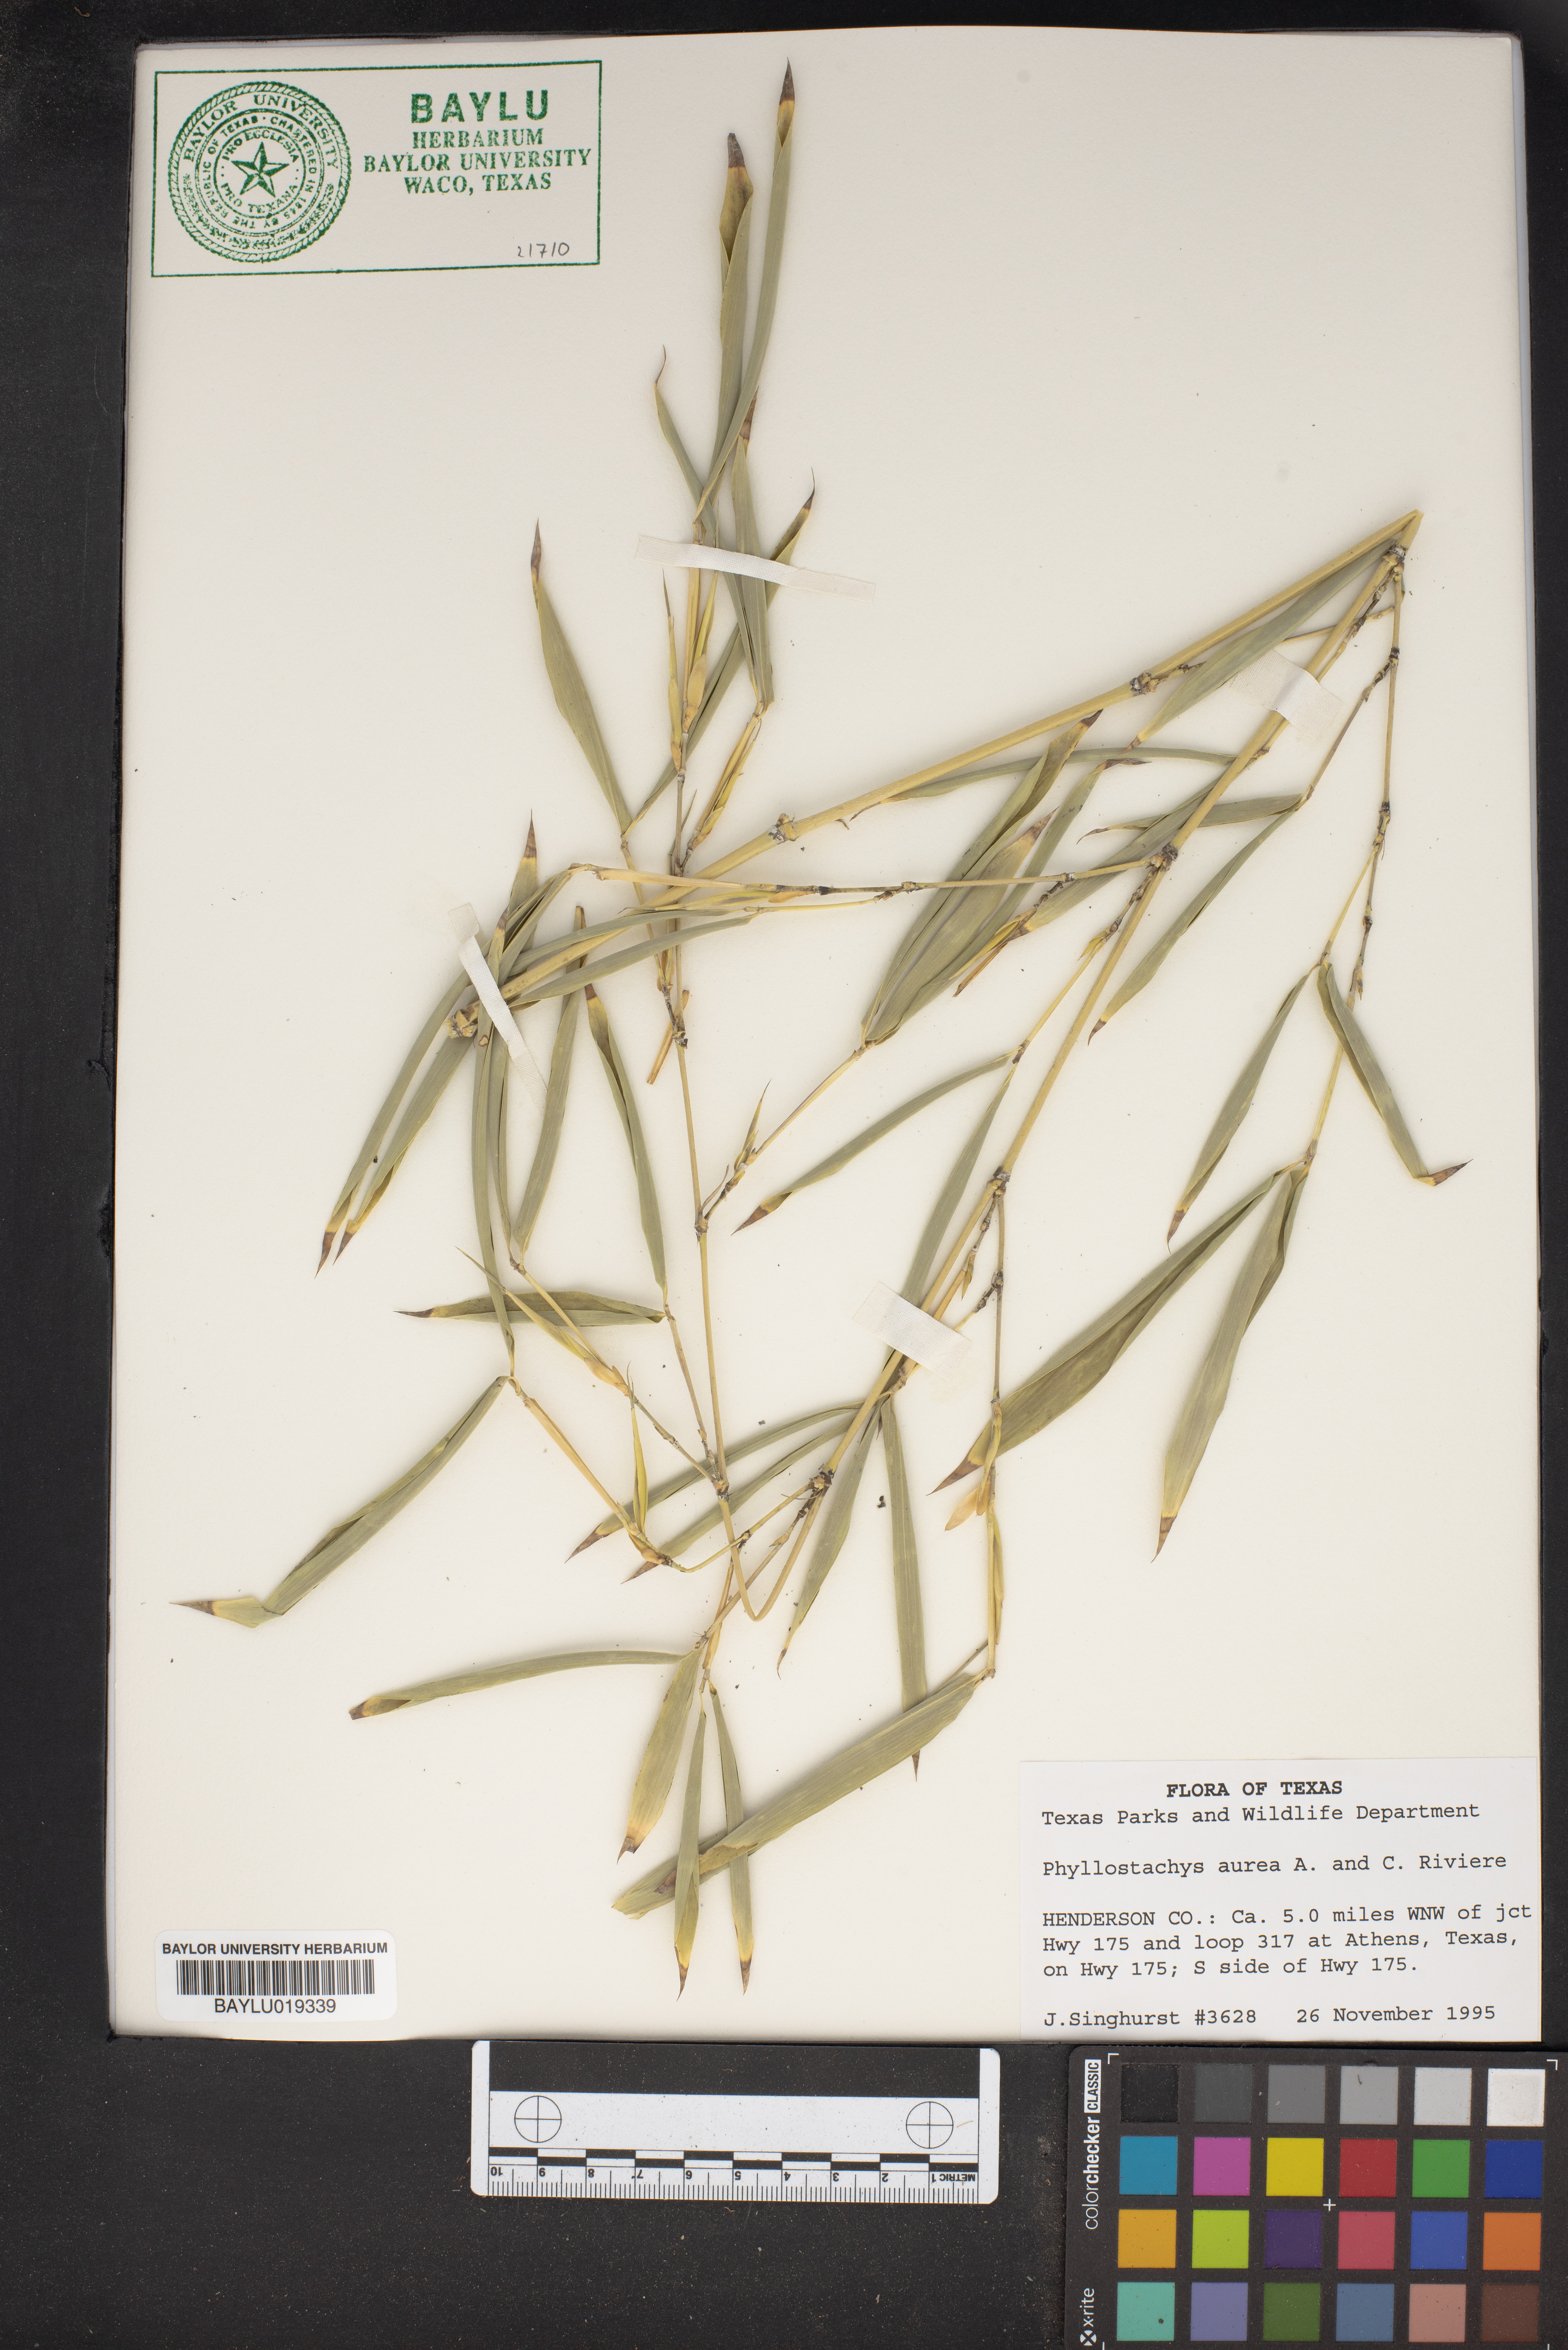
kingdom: Plantae
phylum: Tracheophyta
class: Liliopsida
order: Poales
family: Poaceae
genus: Phyllostachys
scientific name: Phyllostachys aurea
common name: Golden bamboo
